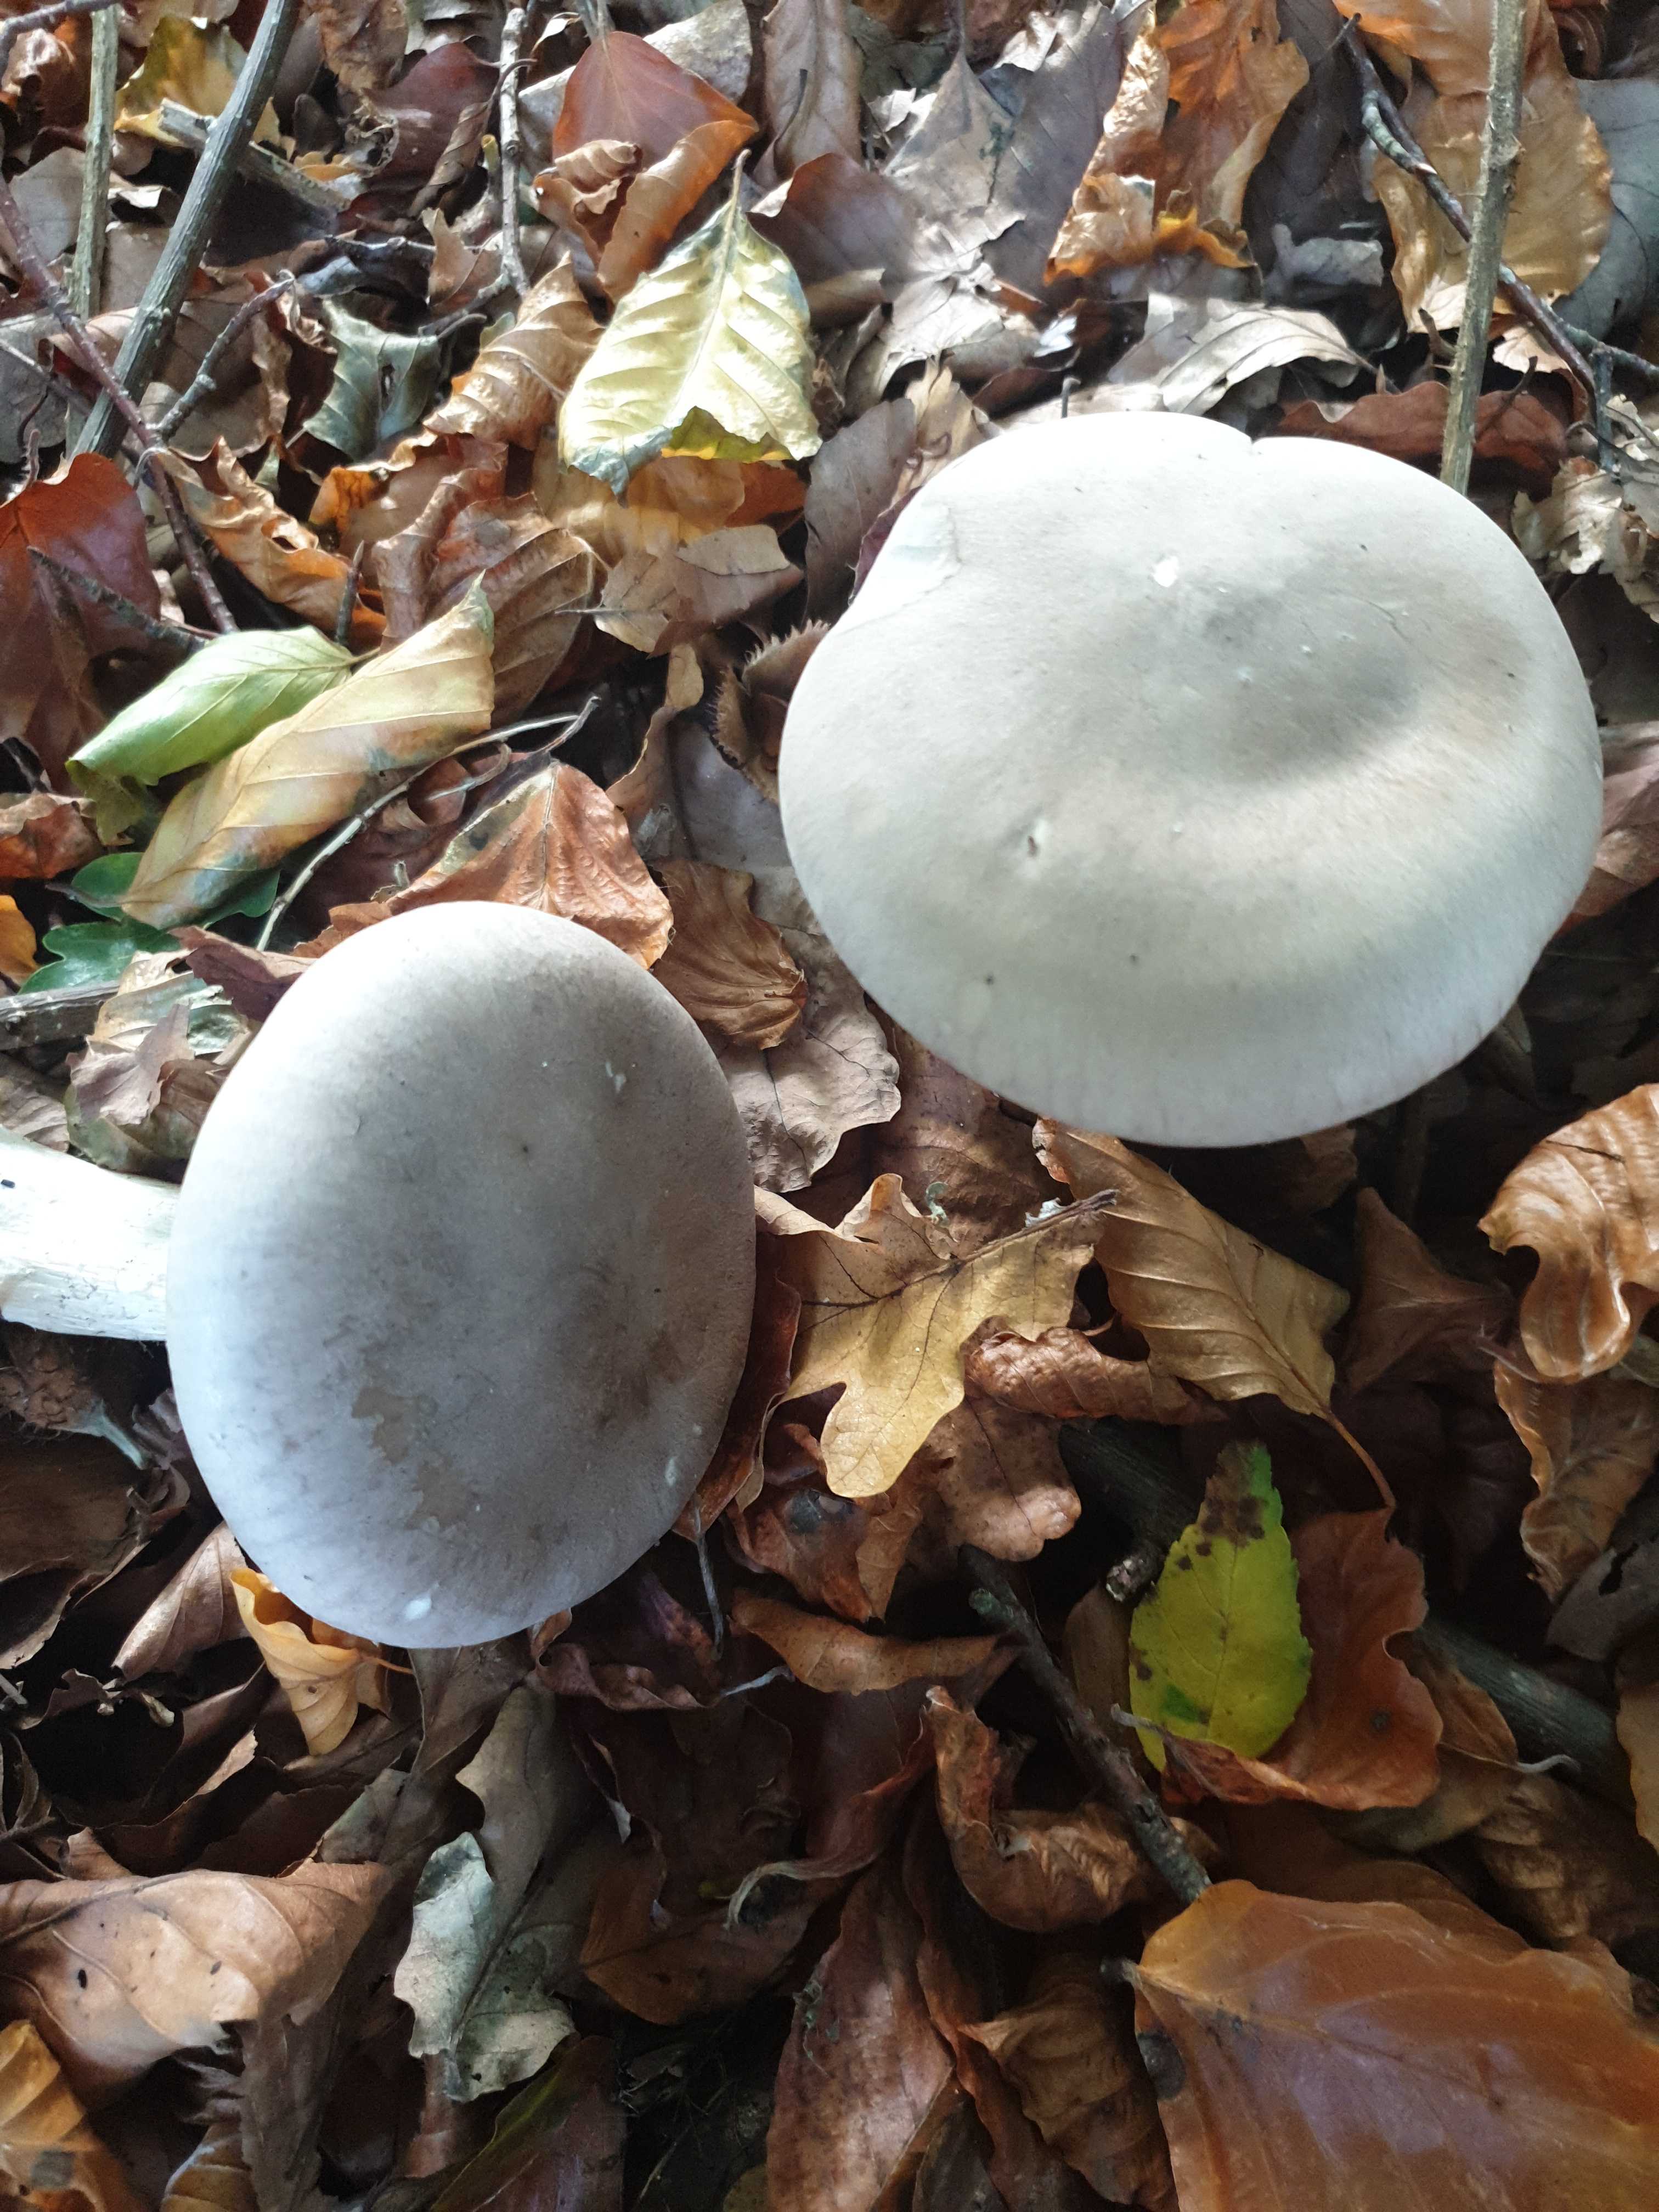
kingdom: Fungi
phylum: Basidiomycota
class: Agaricomycetes
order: Agaricales
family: Tricholomataceae
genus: Clitocybe
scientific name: Clitocybe nebularis
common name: tåge-tragthat
